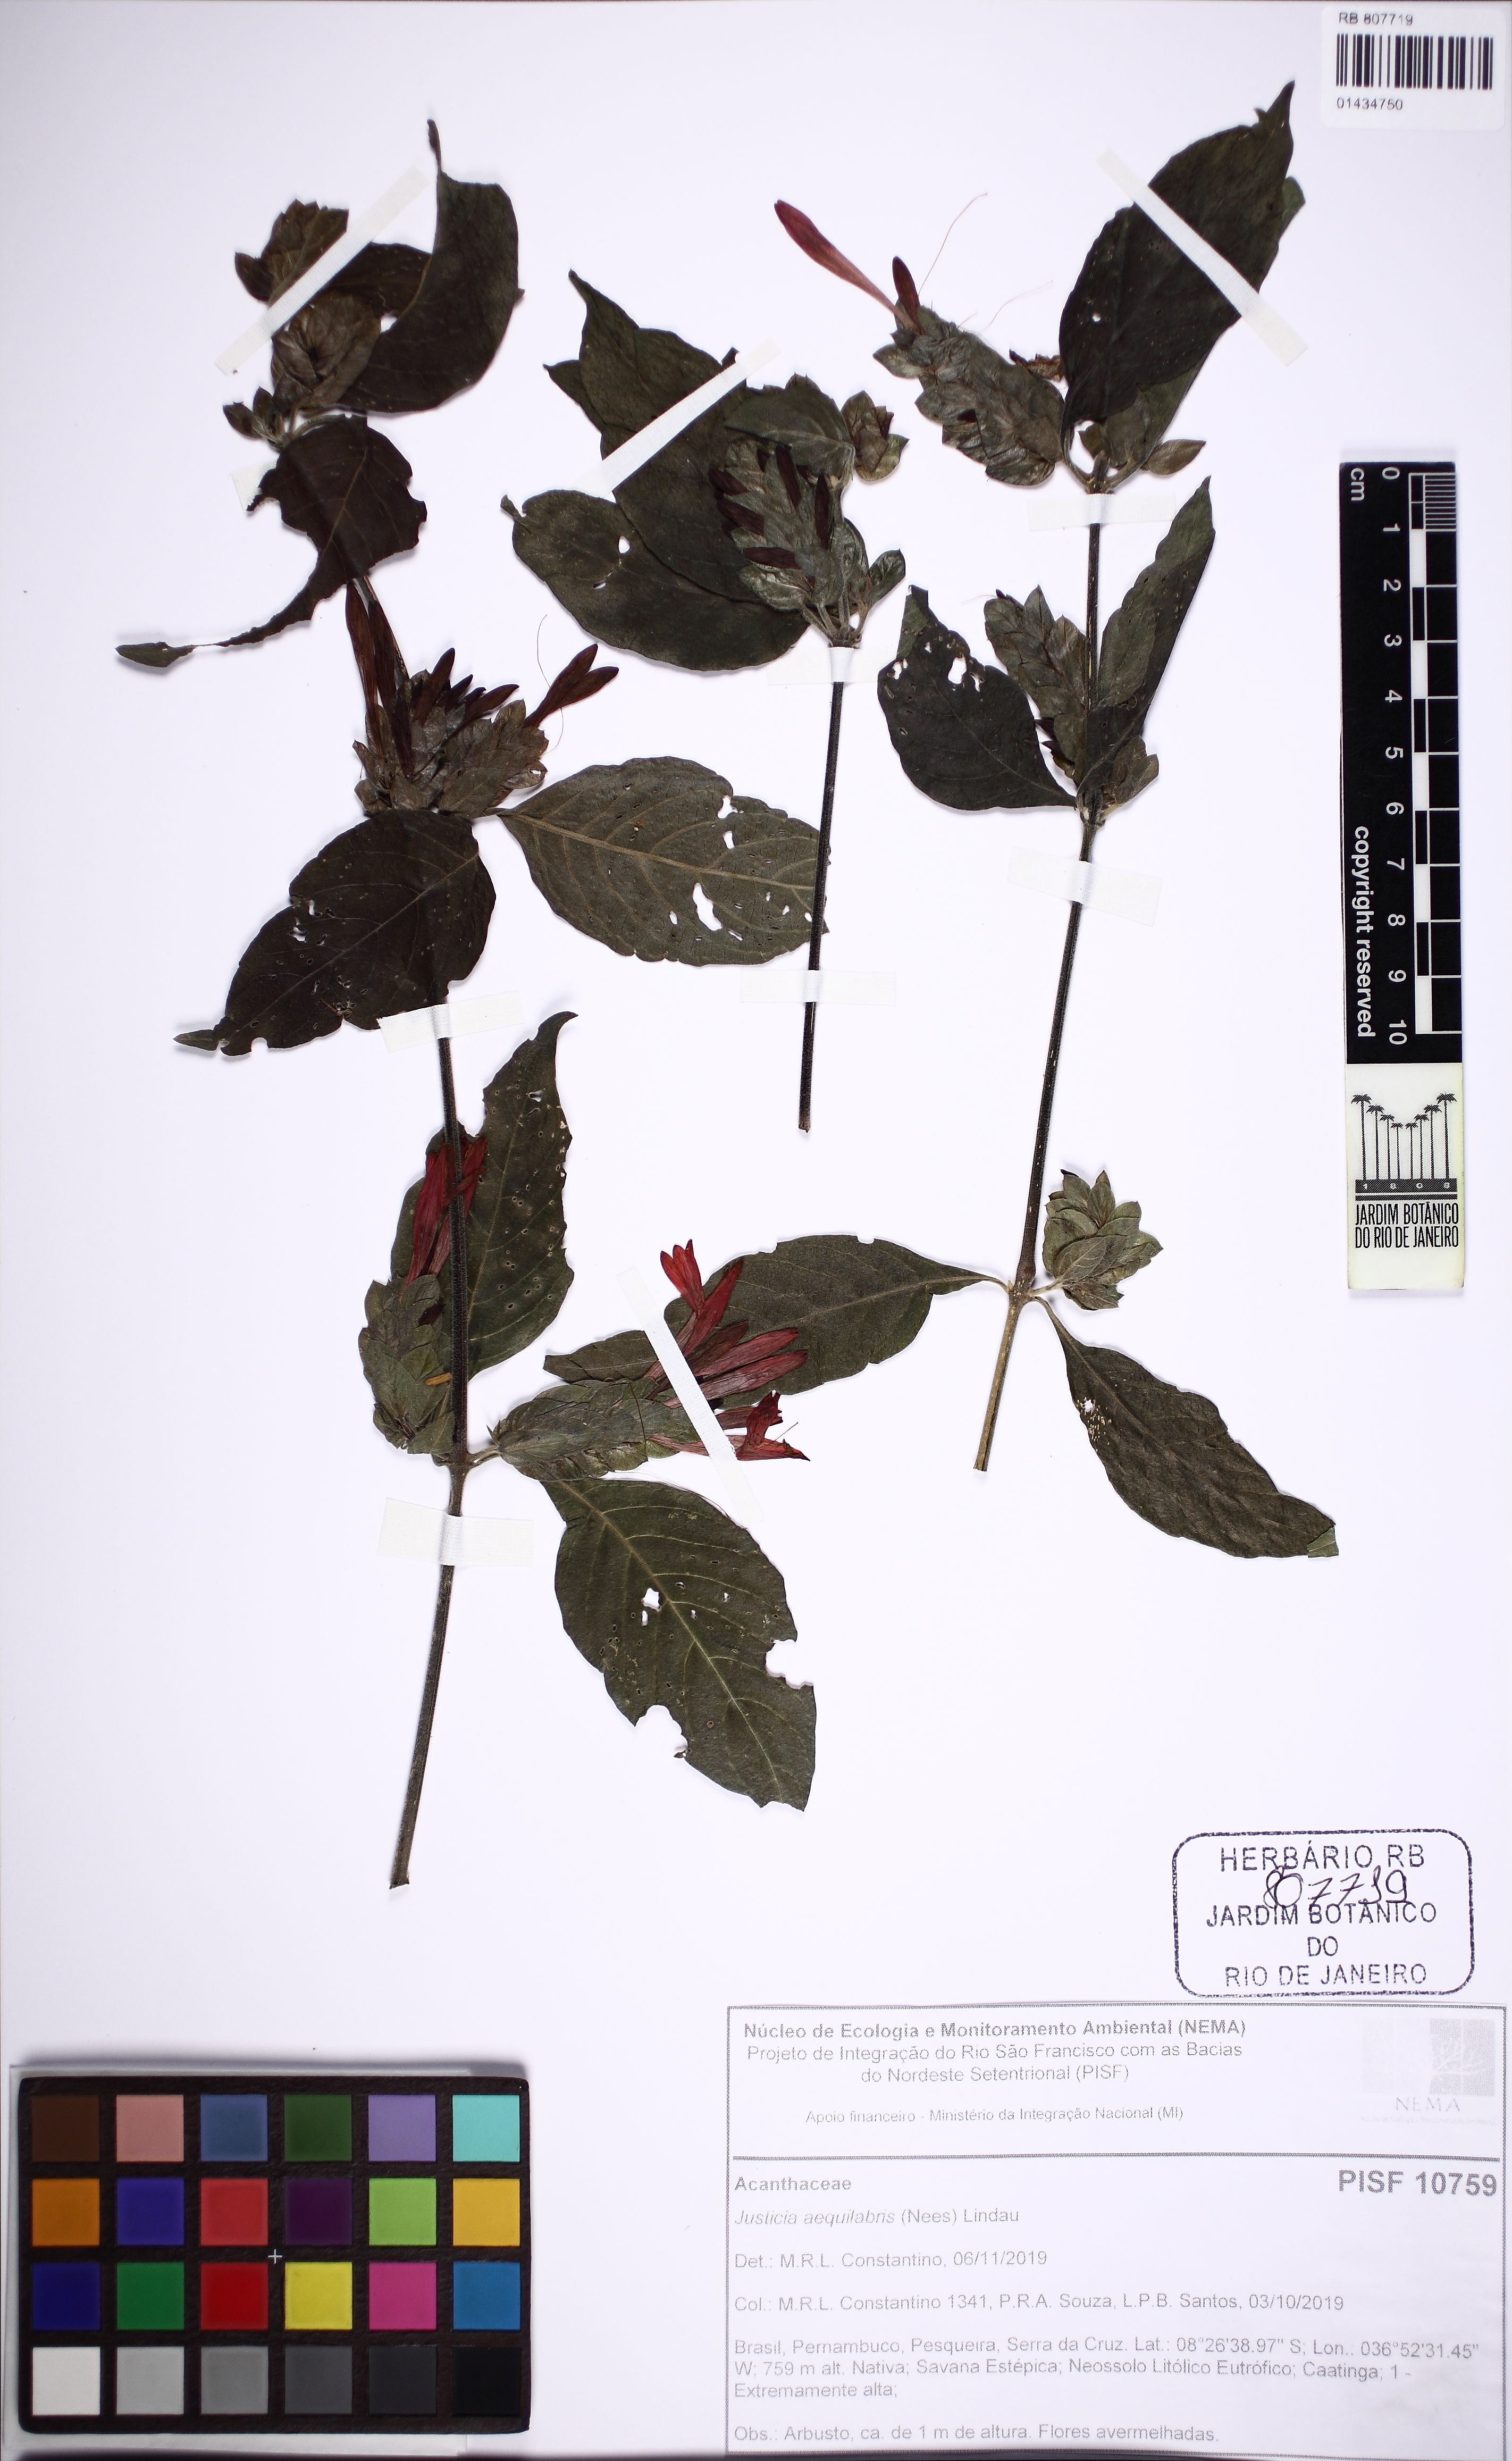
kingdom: Plantae
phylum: Tracheophyta
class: Magnoliopsida
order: Lamiales
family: Acanthaceae
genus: Justicia
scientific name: Justicia aequilabris
